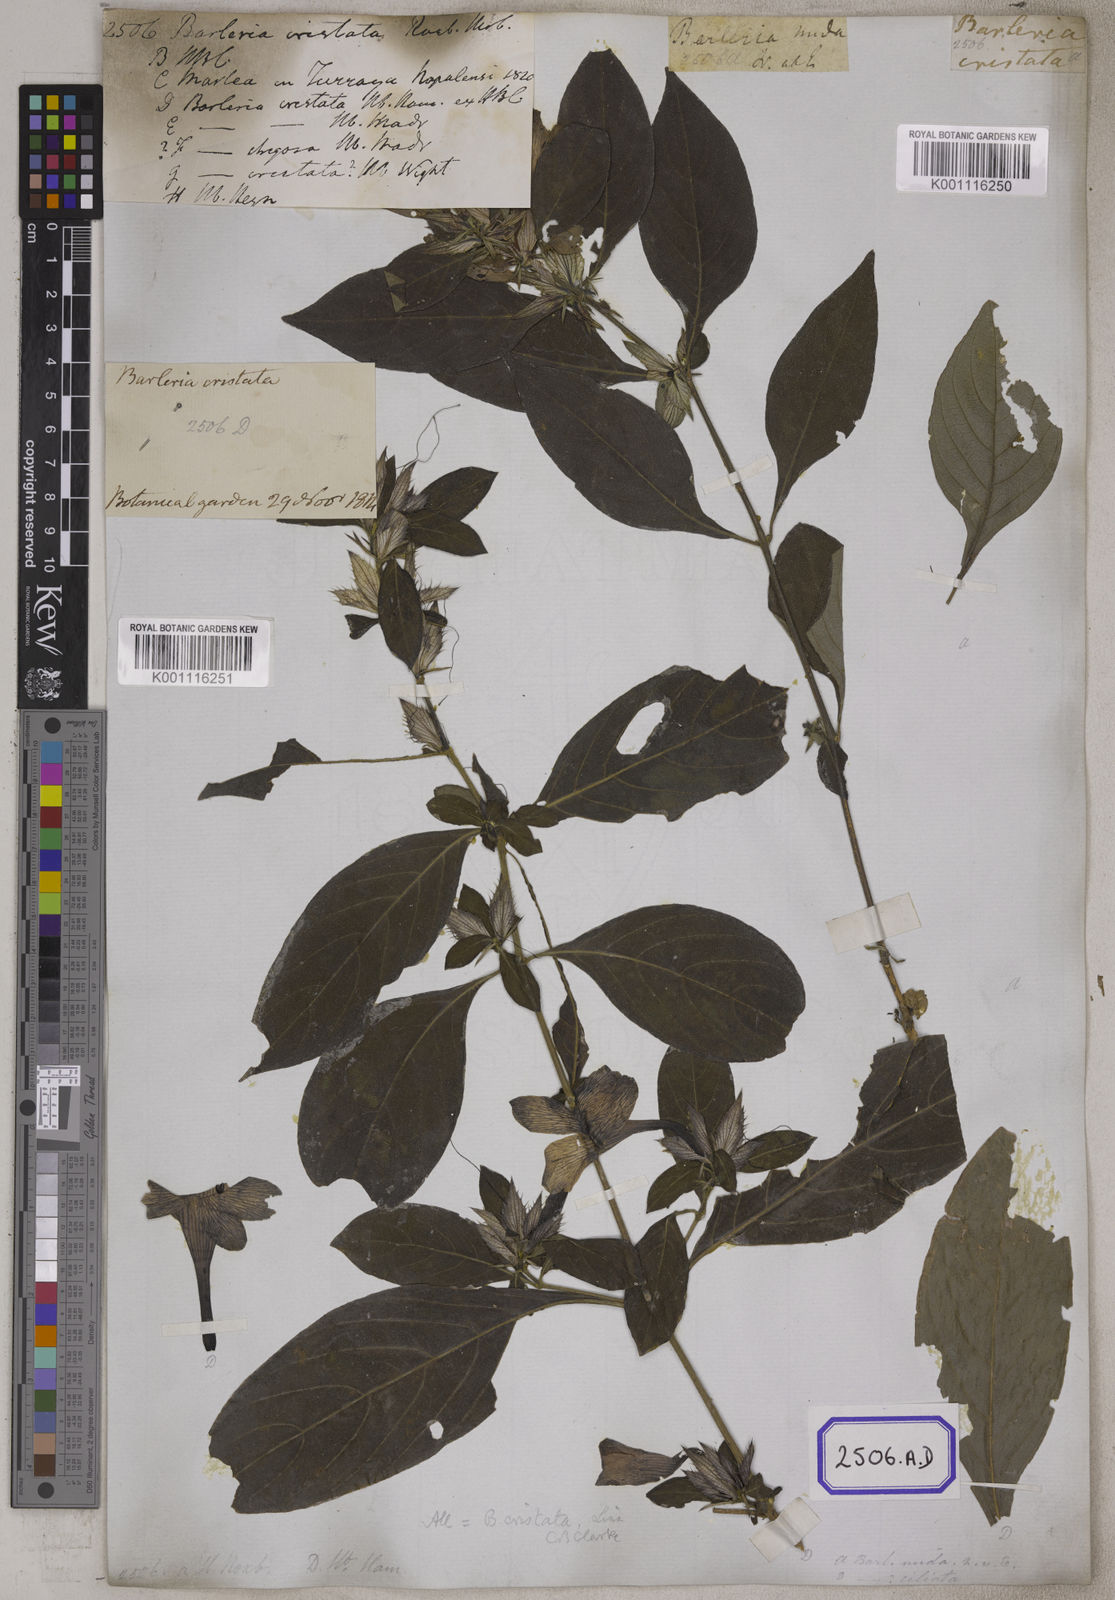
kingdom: Plantae
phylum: Tracheophyta
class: Magnoliopsida
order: Lamiales
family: Acanthaceae
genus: Barleria
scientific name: Barleria cristata
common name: Crested philippine violet
